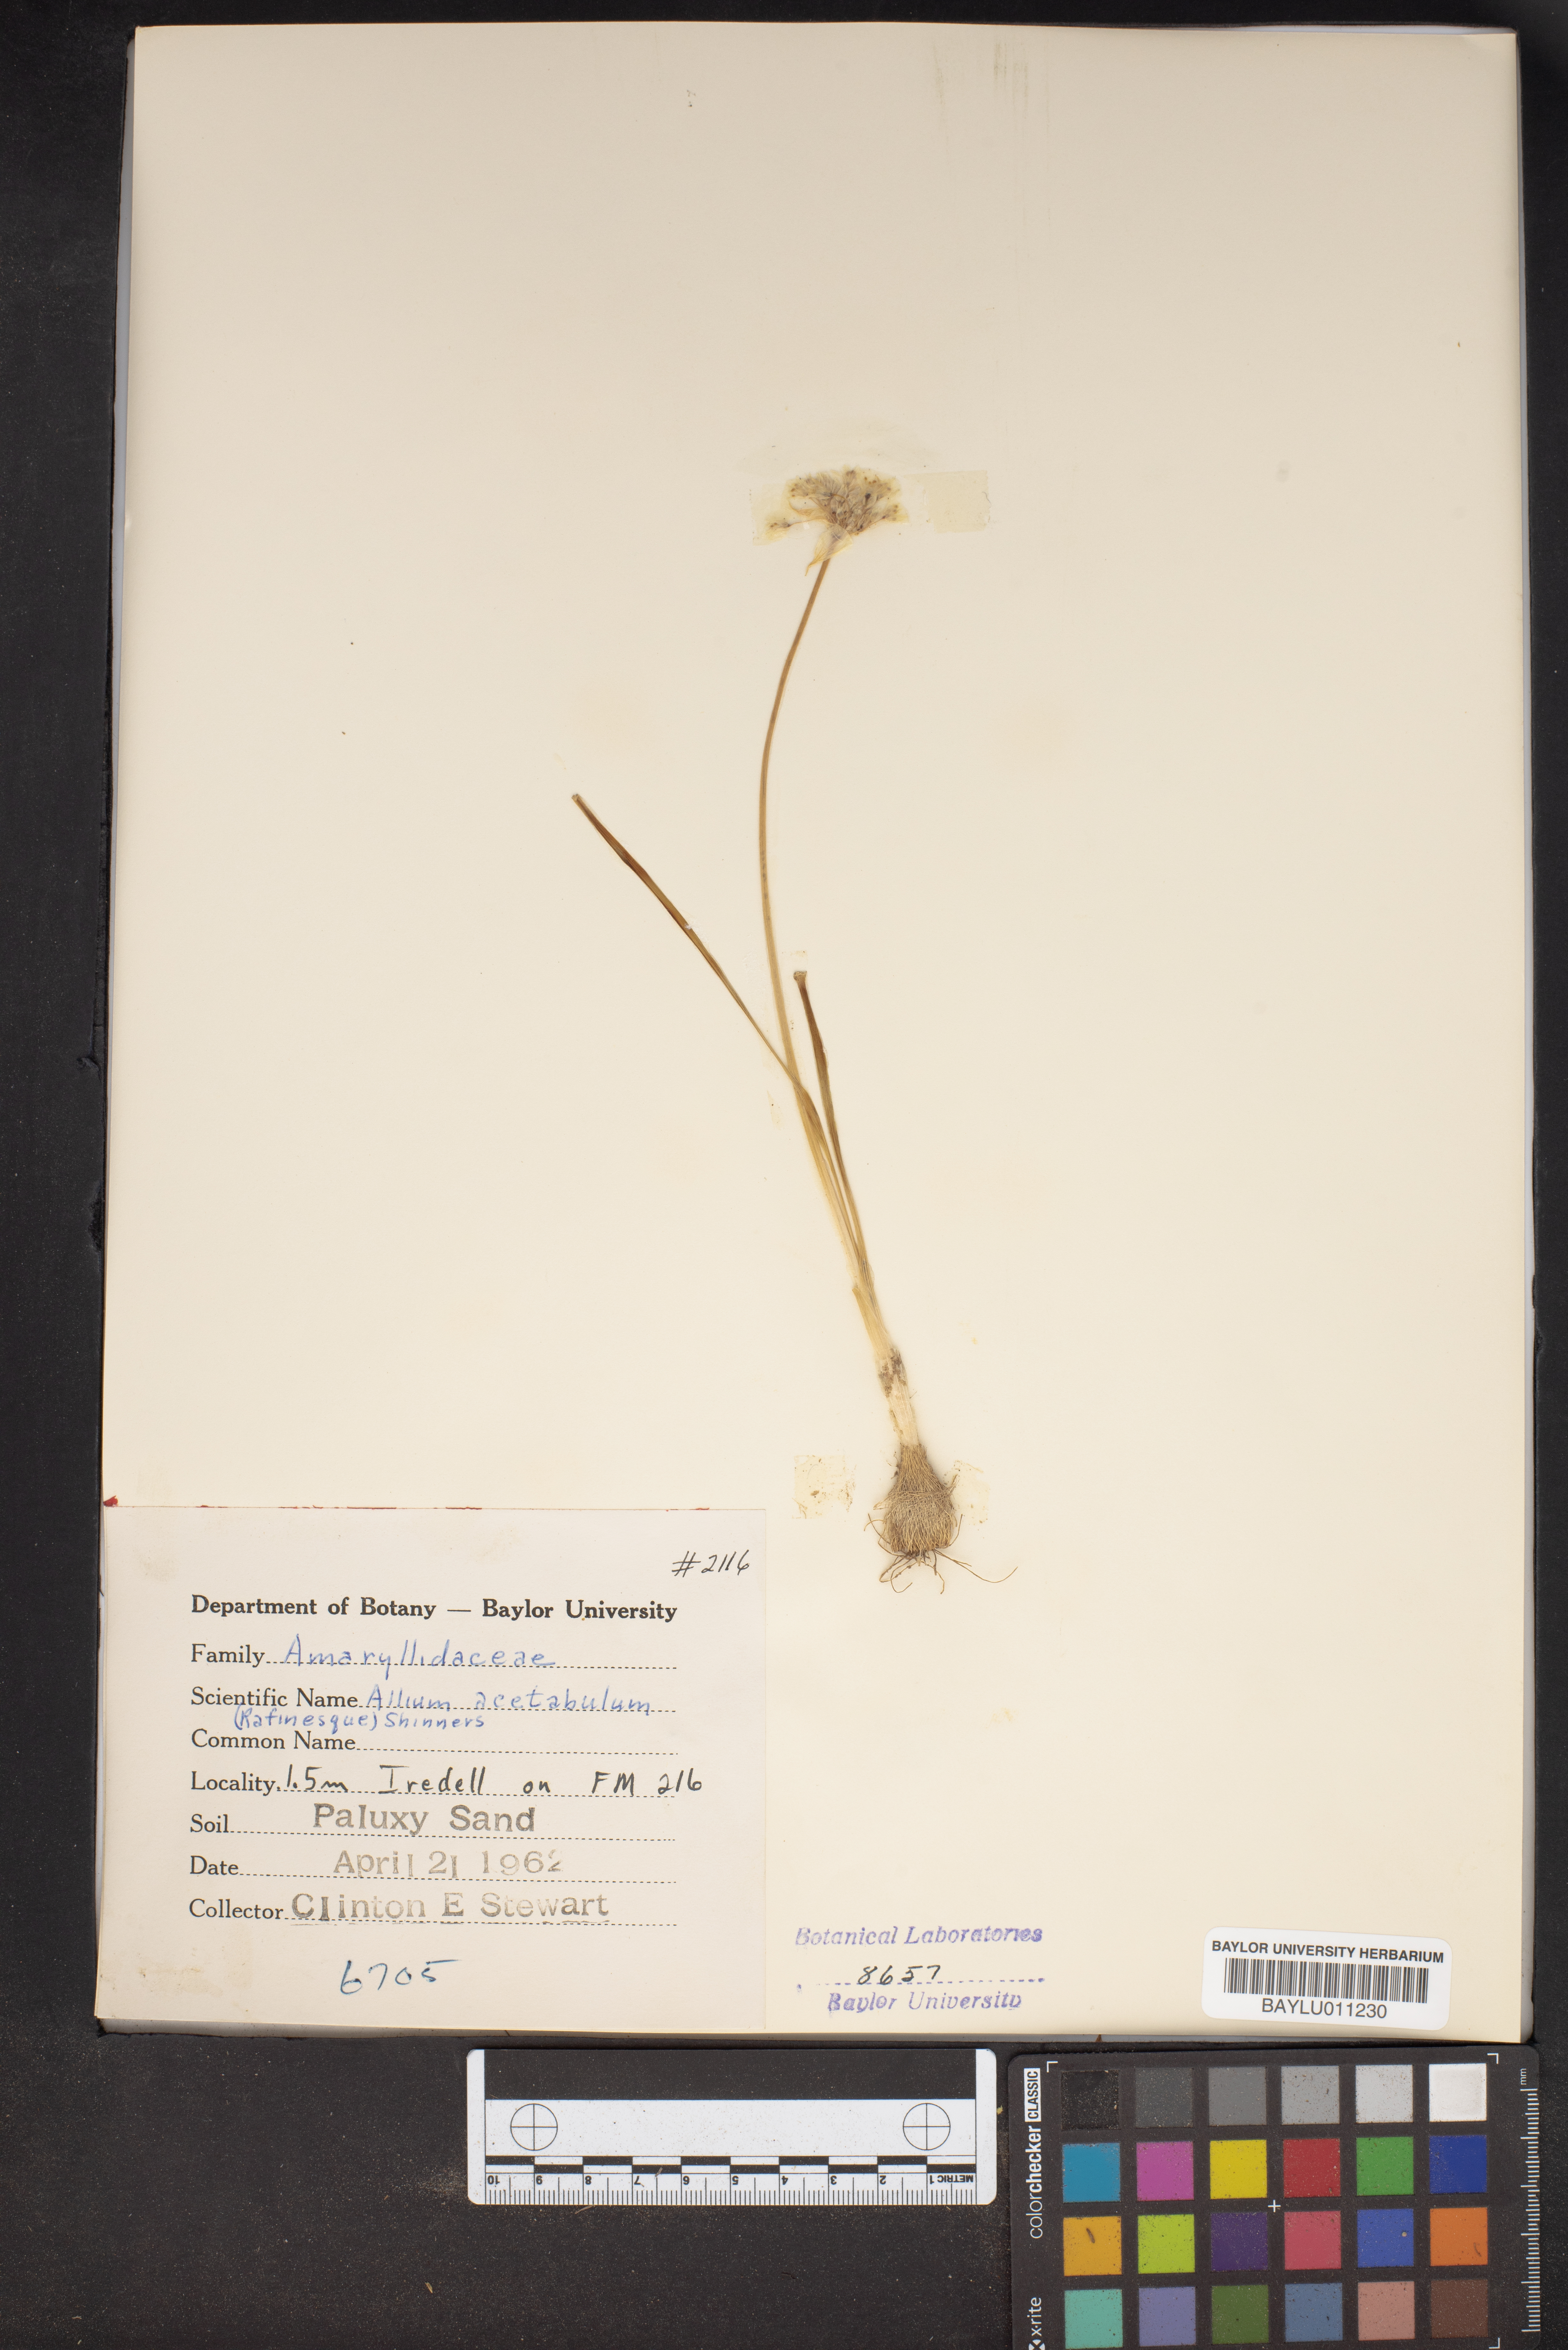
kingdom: Plantae
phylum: Tracheophyta
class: Liliopsida
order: Asparagales
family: Amaryllidaceae
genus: Allium
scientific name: Allium canadense
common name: Meadow garlic
